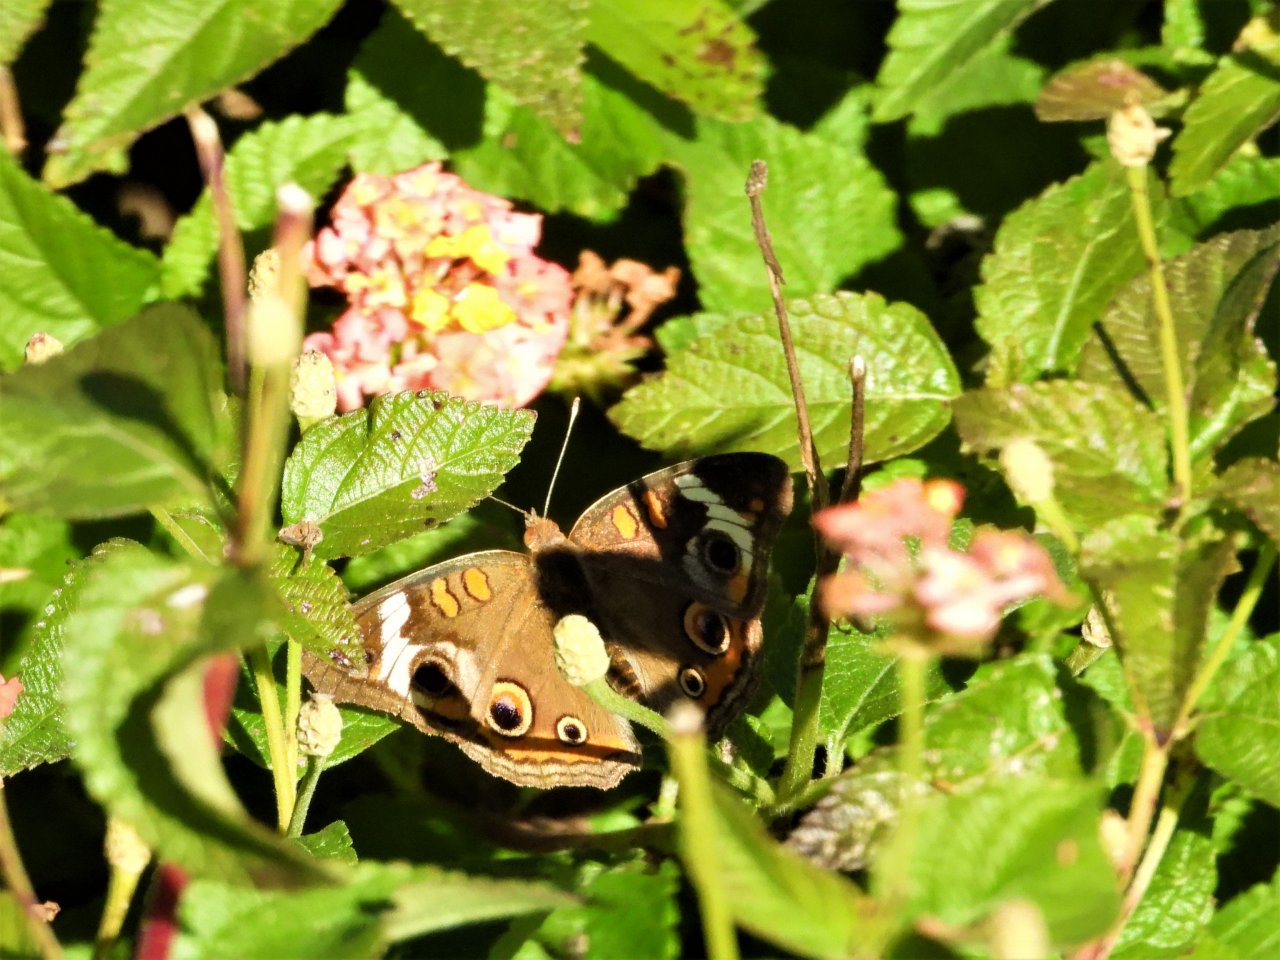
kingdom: Animalia
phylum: Arthropoda
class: Insecta
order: Lepidoptera
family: Nymphalidae
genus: Junonia
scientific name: Junonia coenia
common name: Common Buckeye
